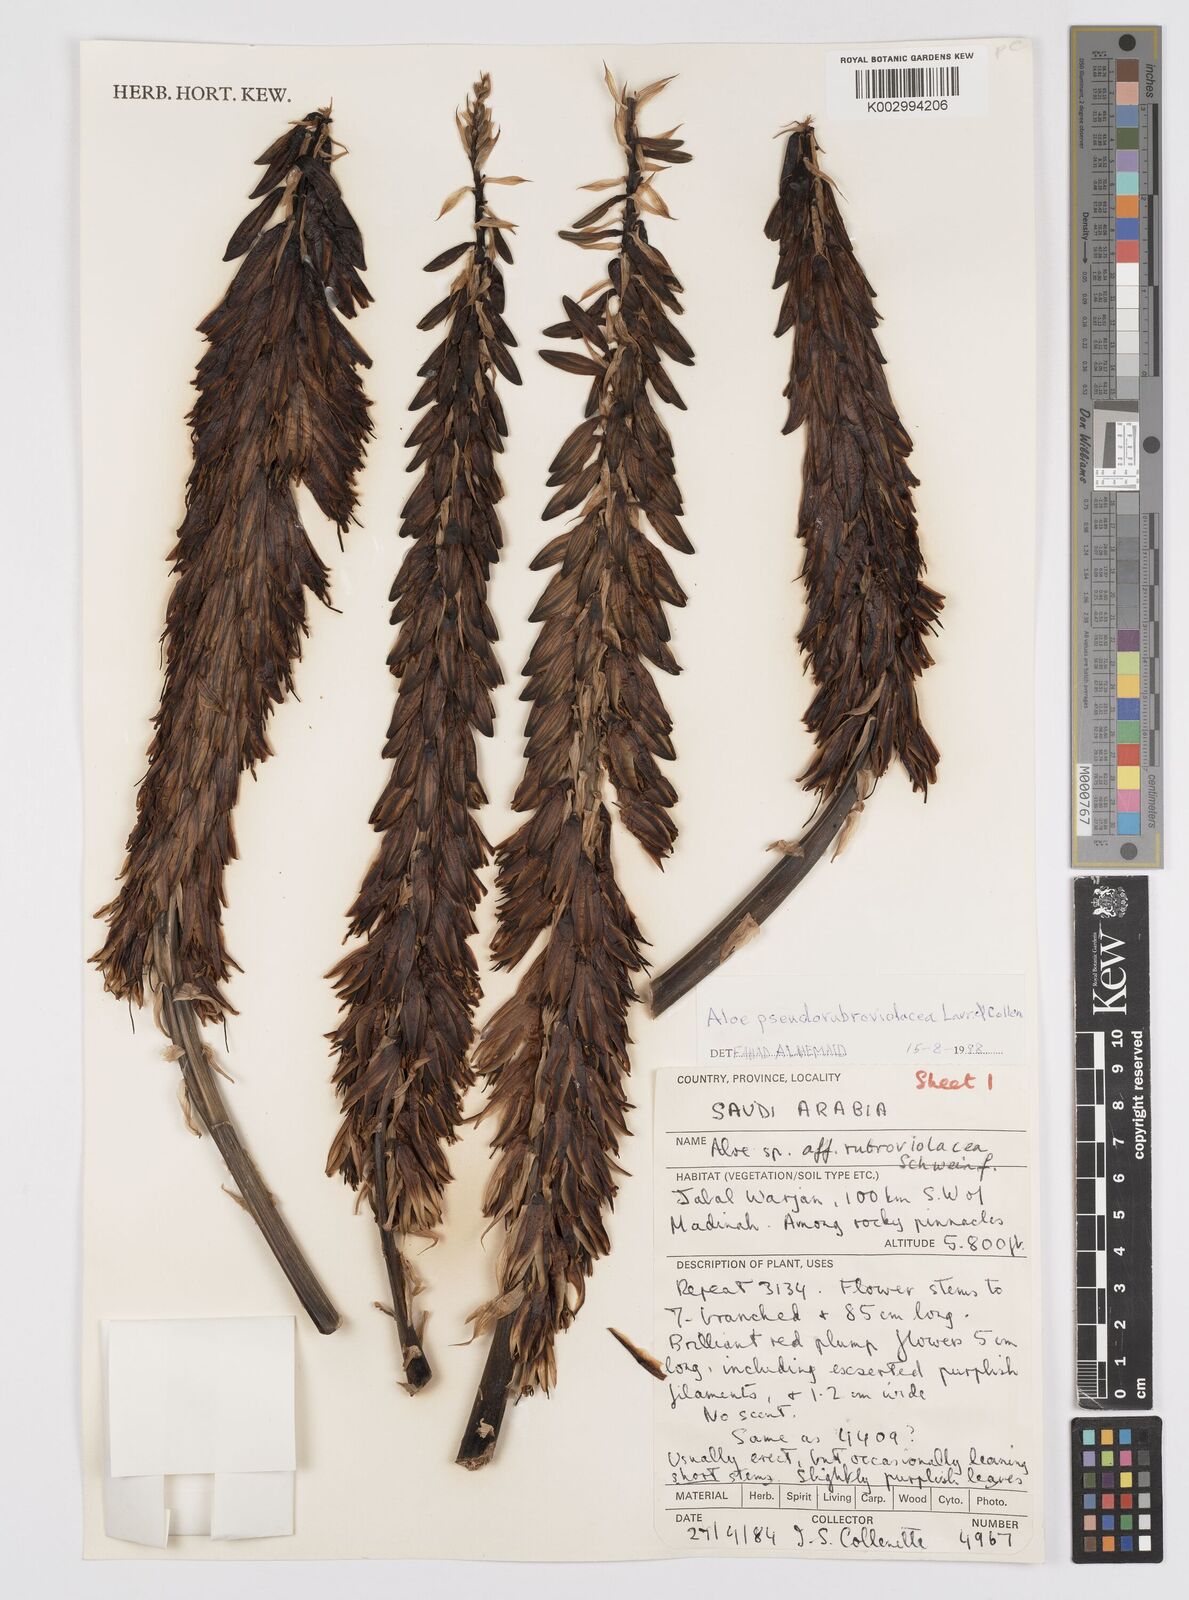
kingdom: Plantae
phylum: Tracheophyta
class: Liliopsida
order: Asparagales
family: Asphodelaceae
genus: Aloe
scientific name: Aloe pseudorubroviolacea
